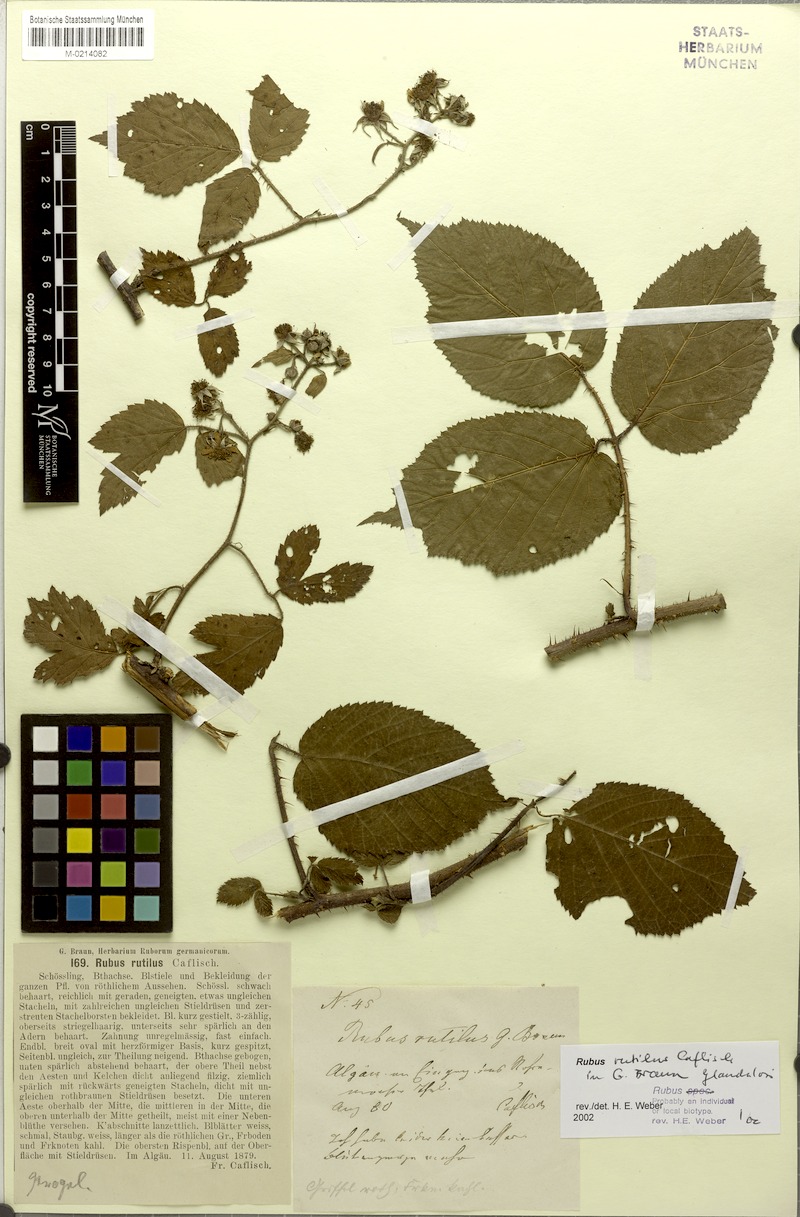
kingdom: Plantae
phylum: Tracheophyta
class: Magnoliopsida
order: Rosales
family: Rosaceae
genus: Rubus
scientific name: Rubus rutilus
